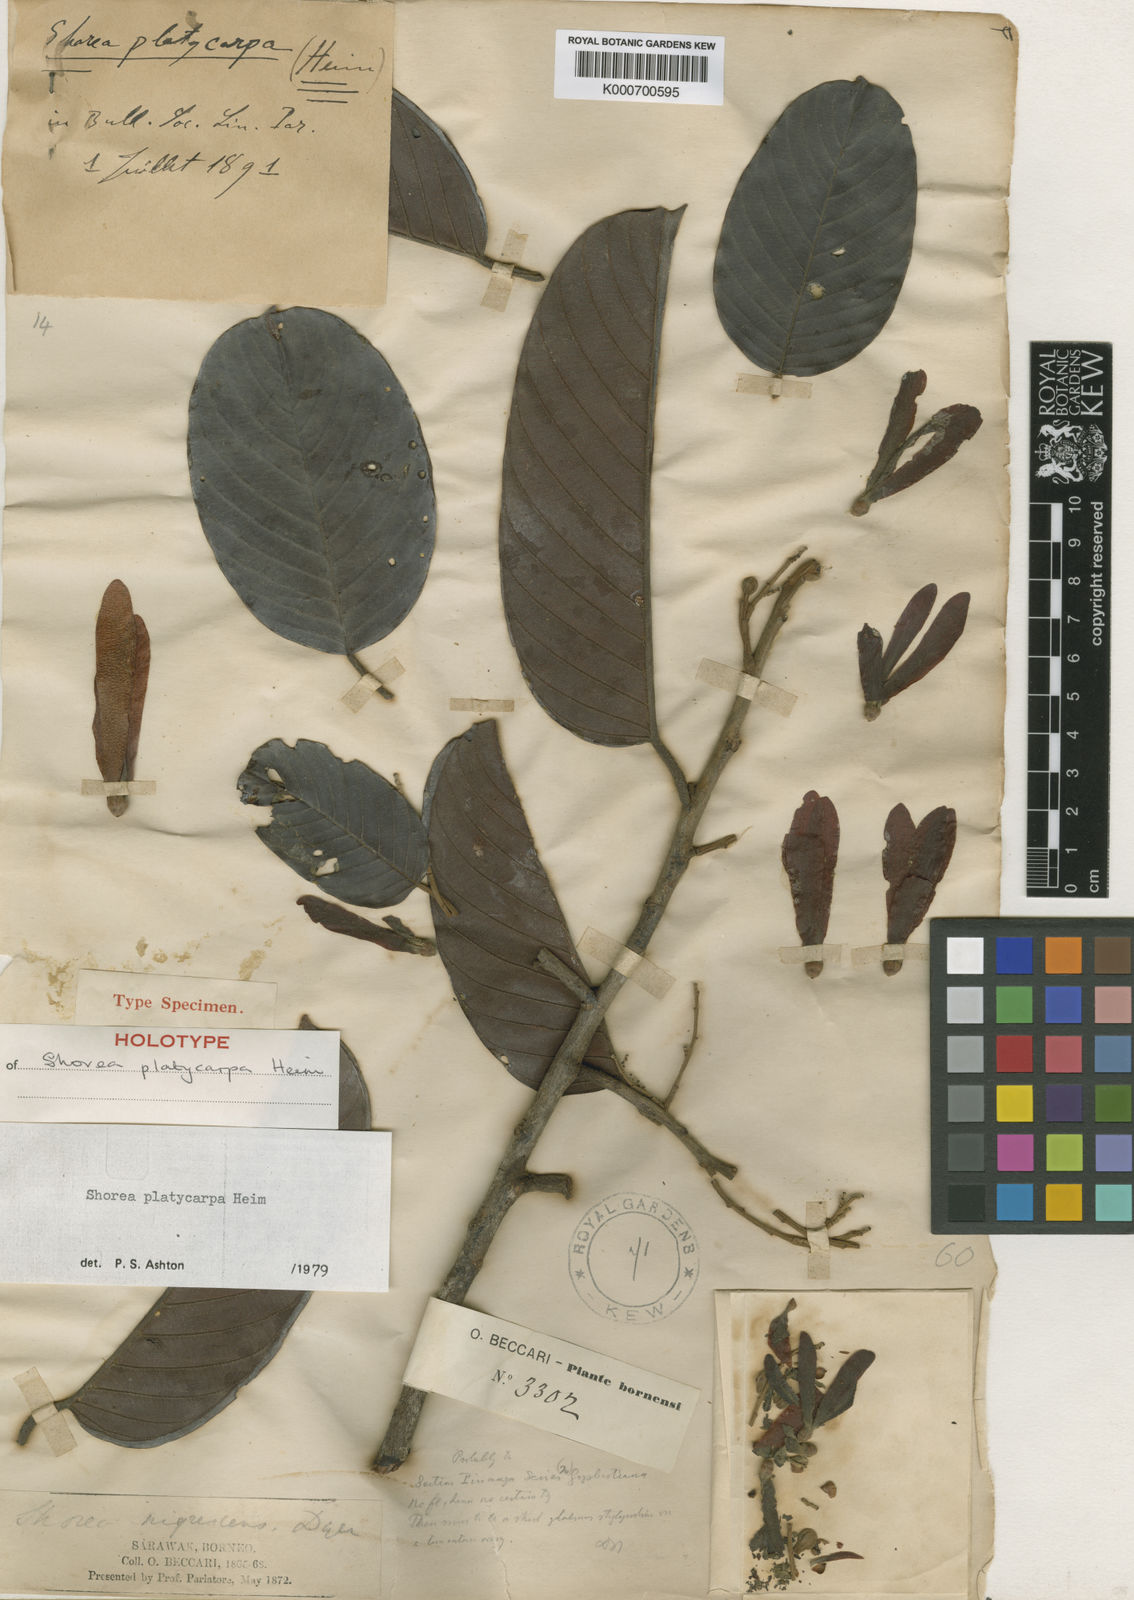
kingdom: Plantae
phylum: Tracheophyta
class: Magnoliopsida
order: Malvales
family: Dipterocarpaceae
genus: Shorea
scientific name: Shorea platycarpa
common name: Light red meranti
